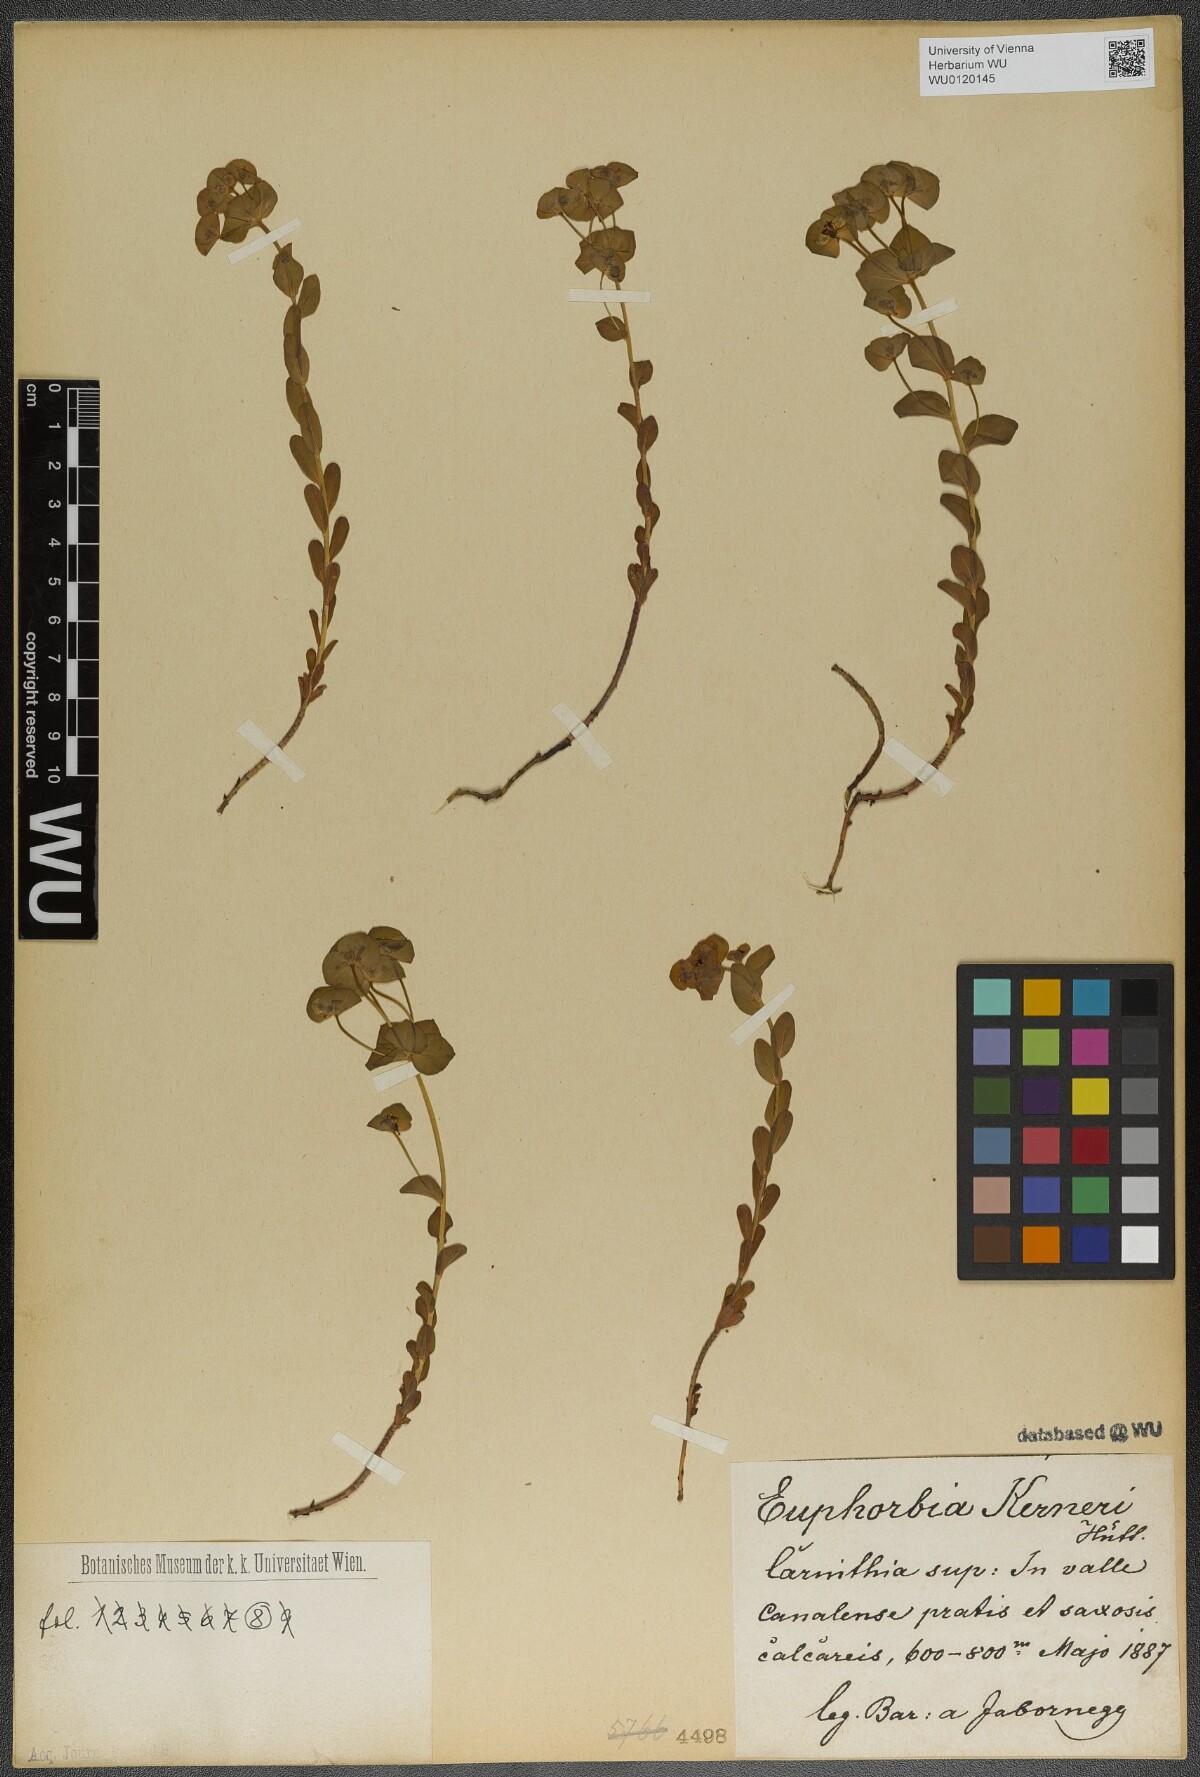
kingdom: Plantae
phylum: Tracheophyta
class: Magnoliopsida
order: Malpighiales
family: Euphorbiaceae
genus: Euphorbia
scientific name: Euphorbia kerneri
